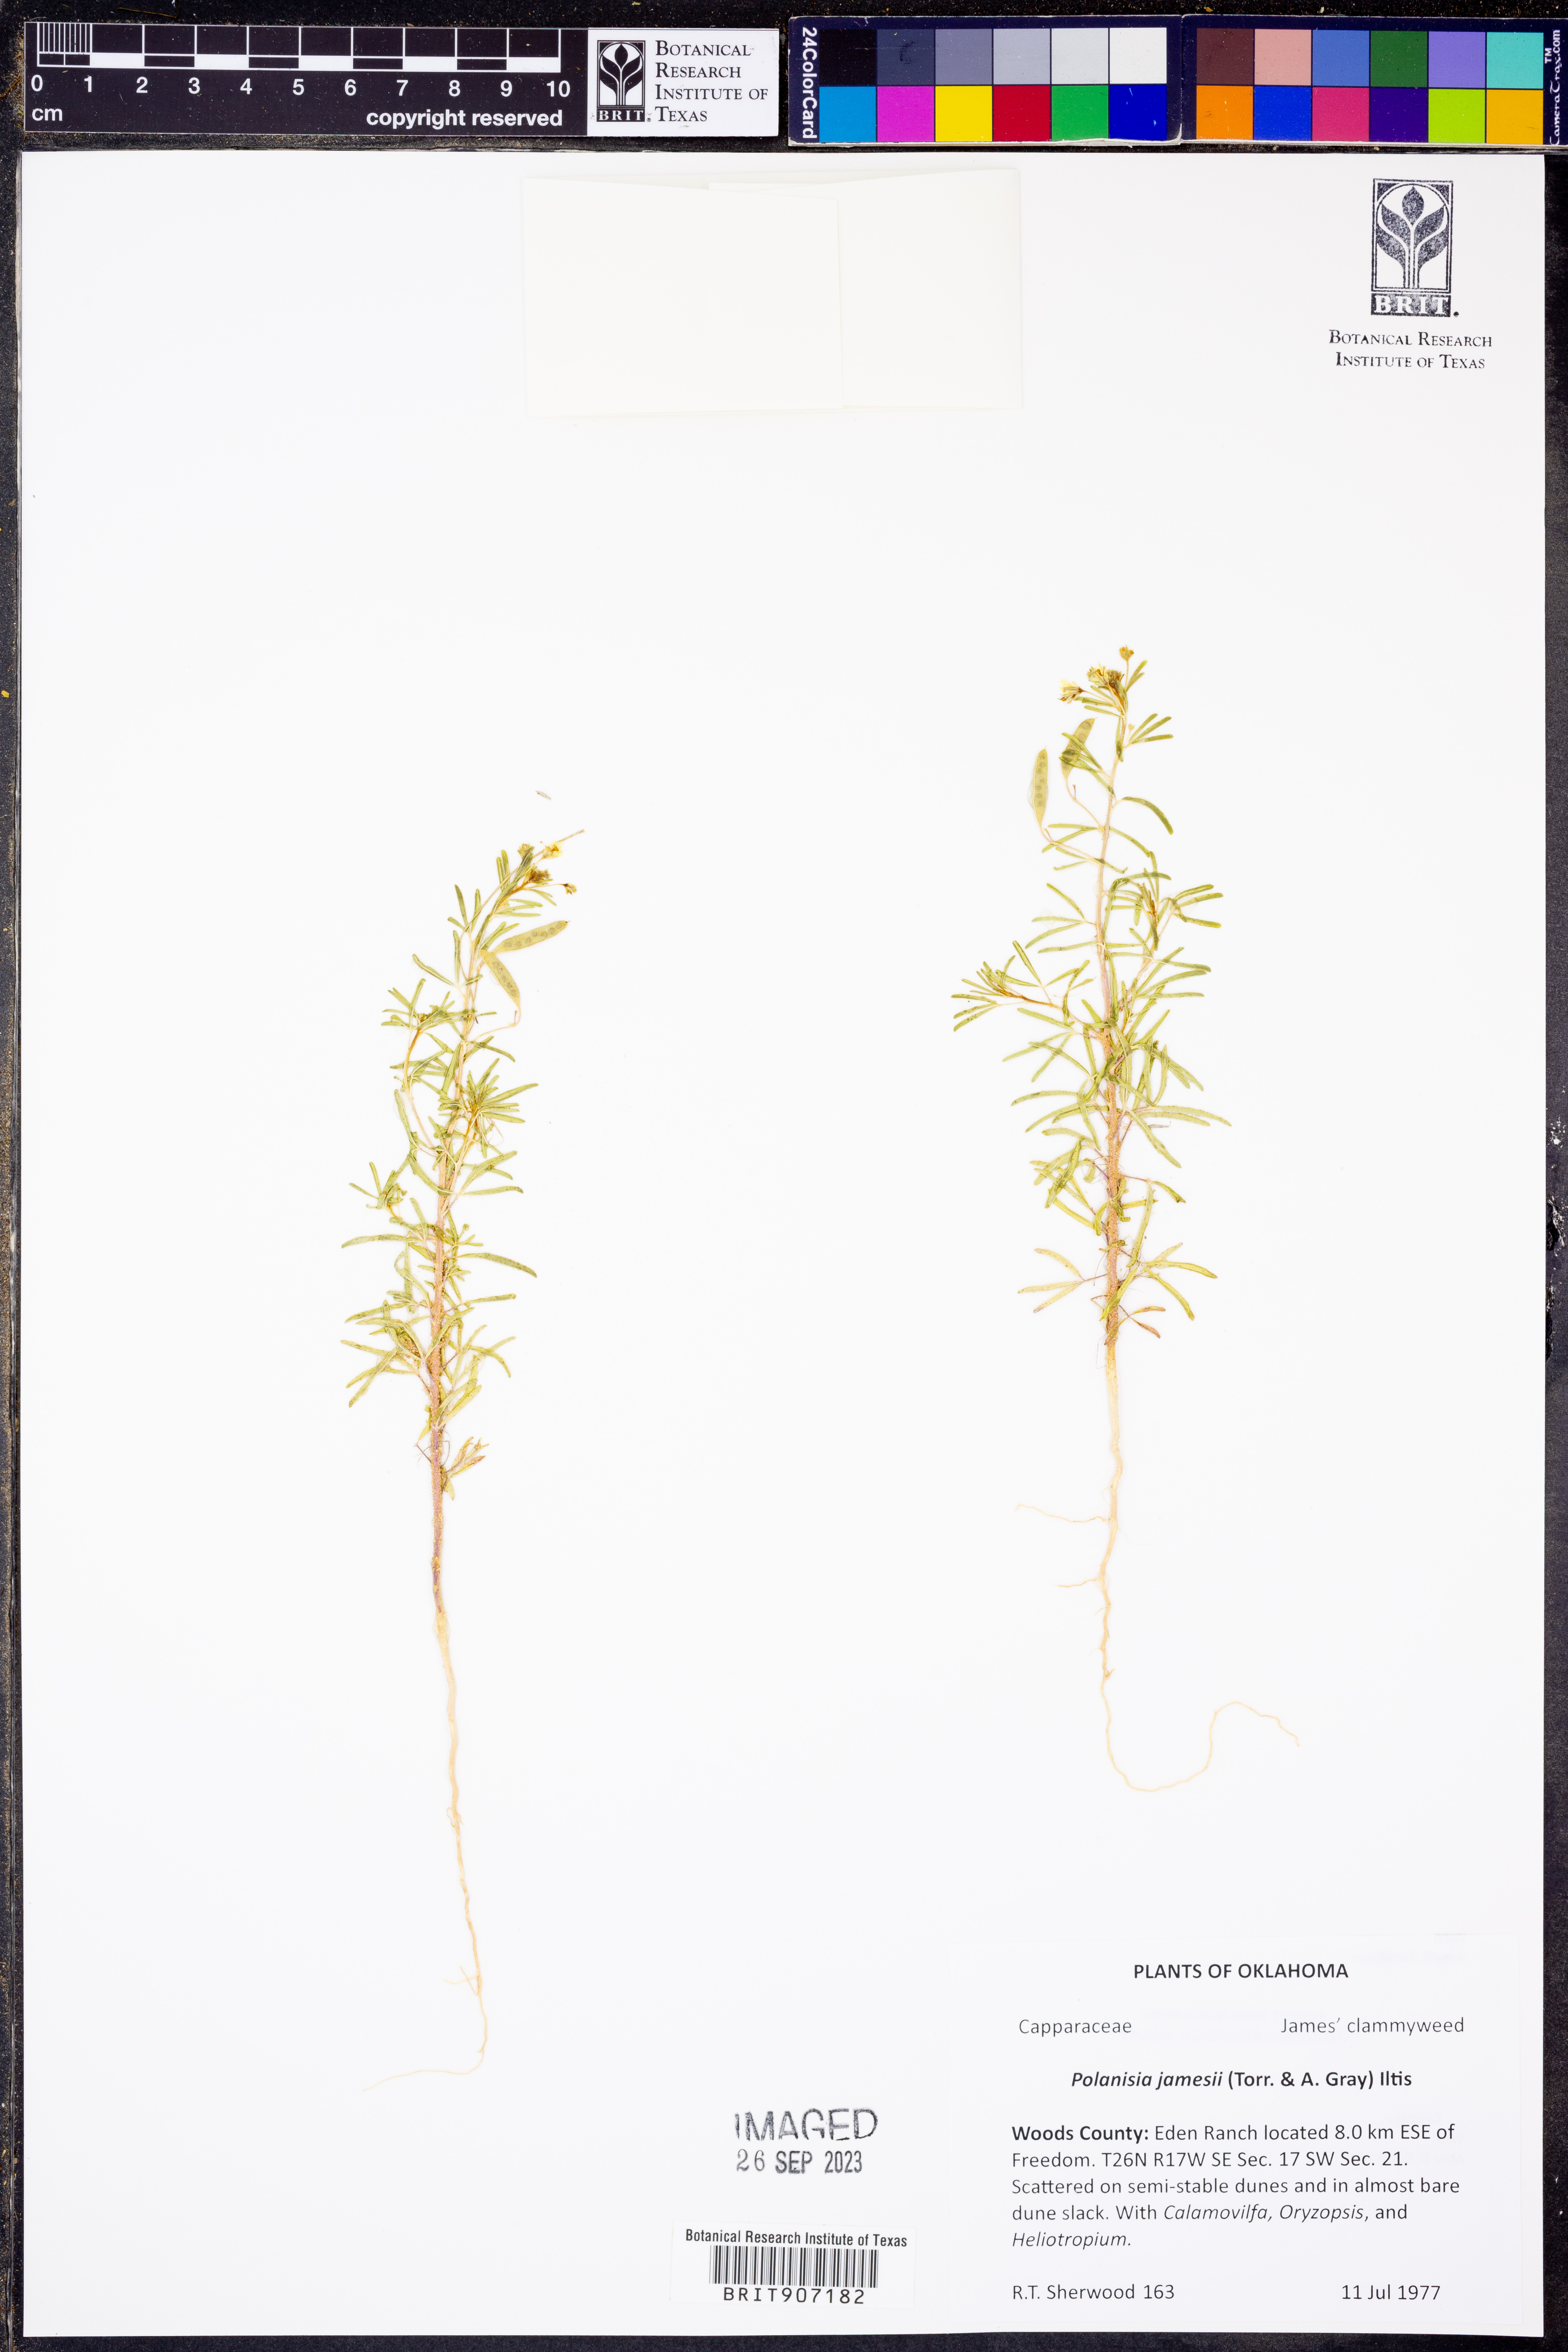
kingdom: Plantae
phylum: Tracheophyta
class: Magnoliopsida
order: Brassicales
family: Cleomaceae
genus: Polanisia
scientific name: Polanisia jamesii
